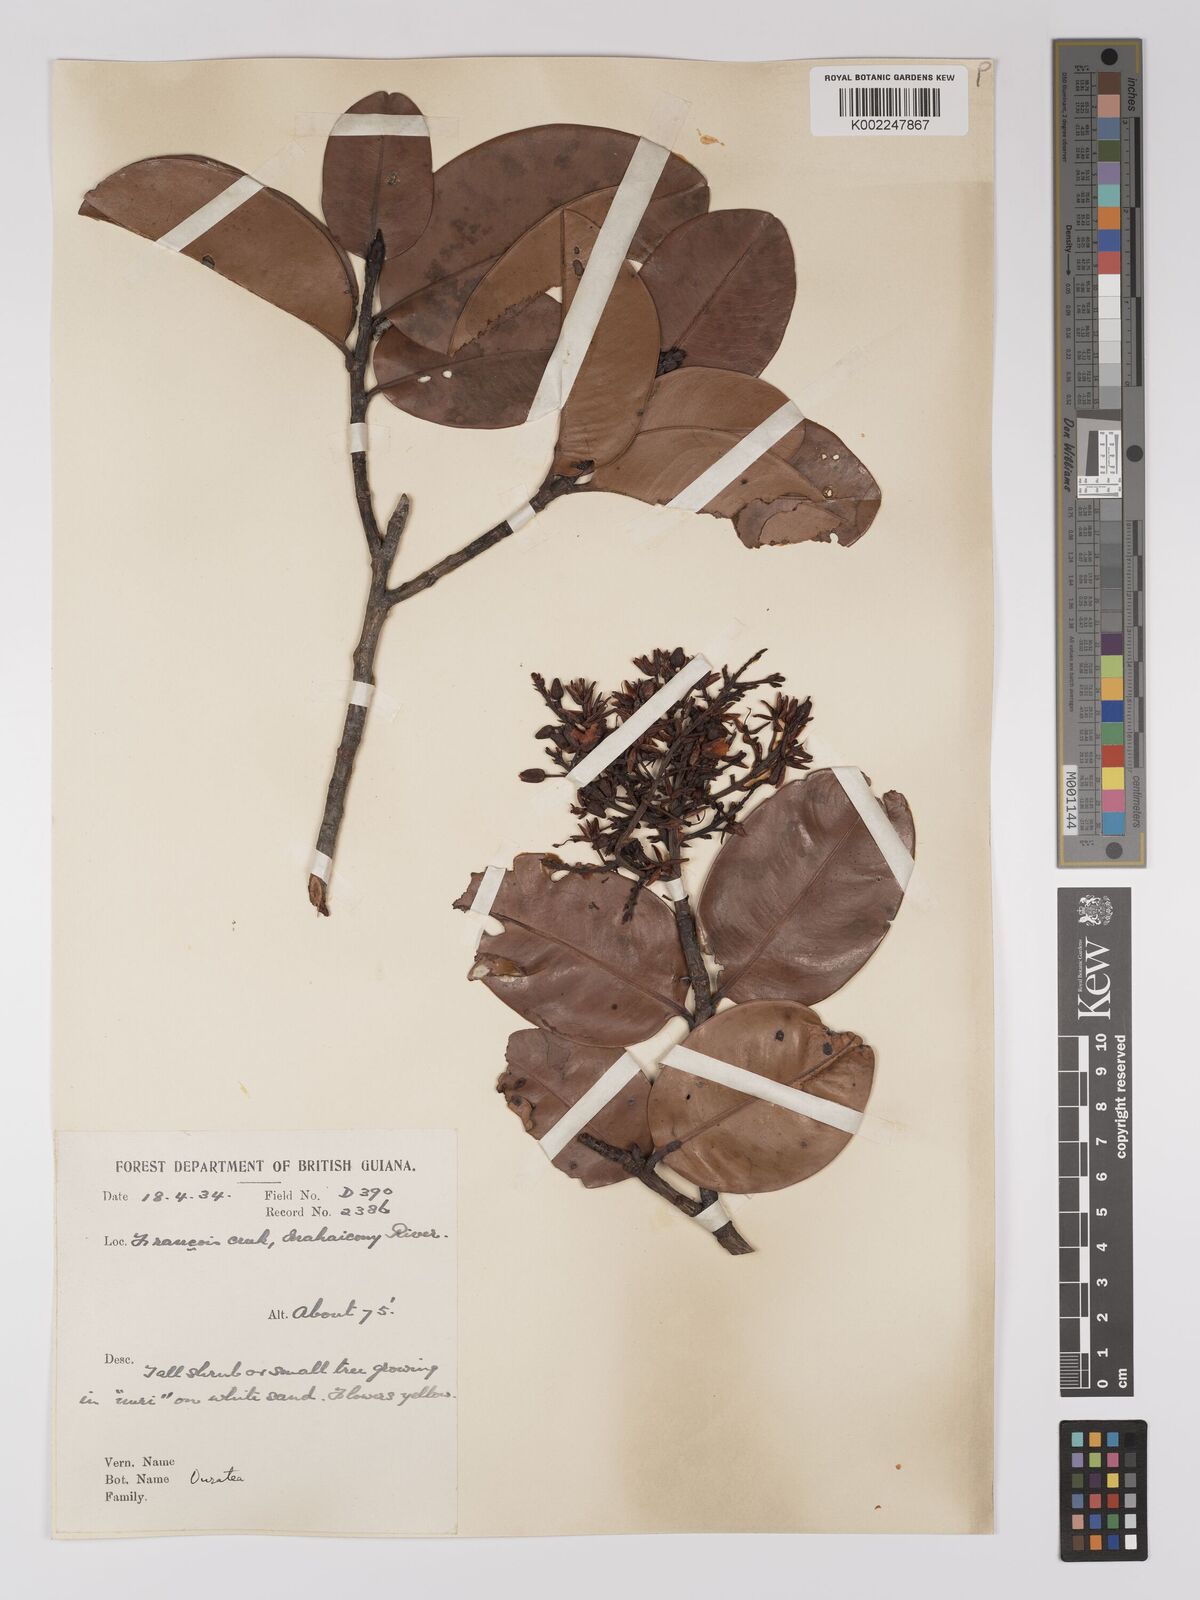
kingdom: Plantae
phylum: Tracheophyta
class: Magnoliopsida
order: Malpighiales
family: Ochnaceae
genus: Ouratea
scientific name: Ouratea
